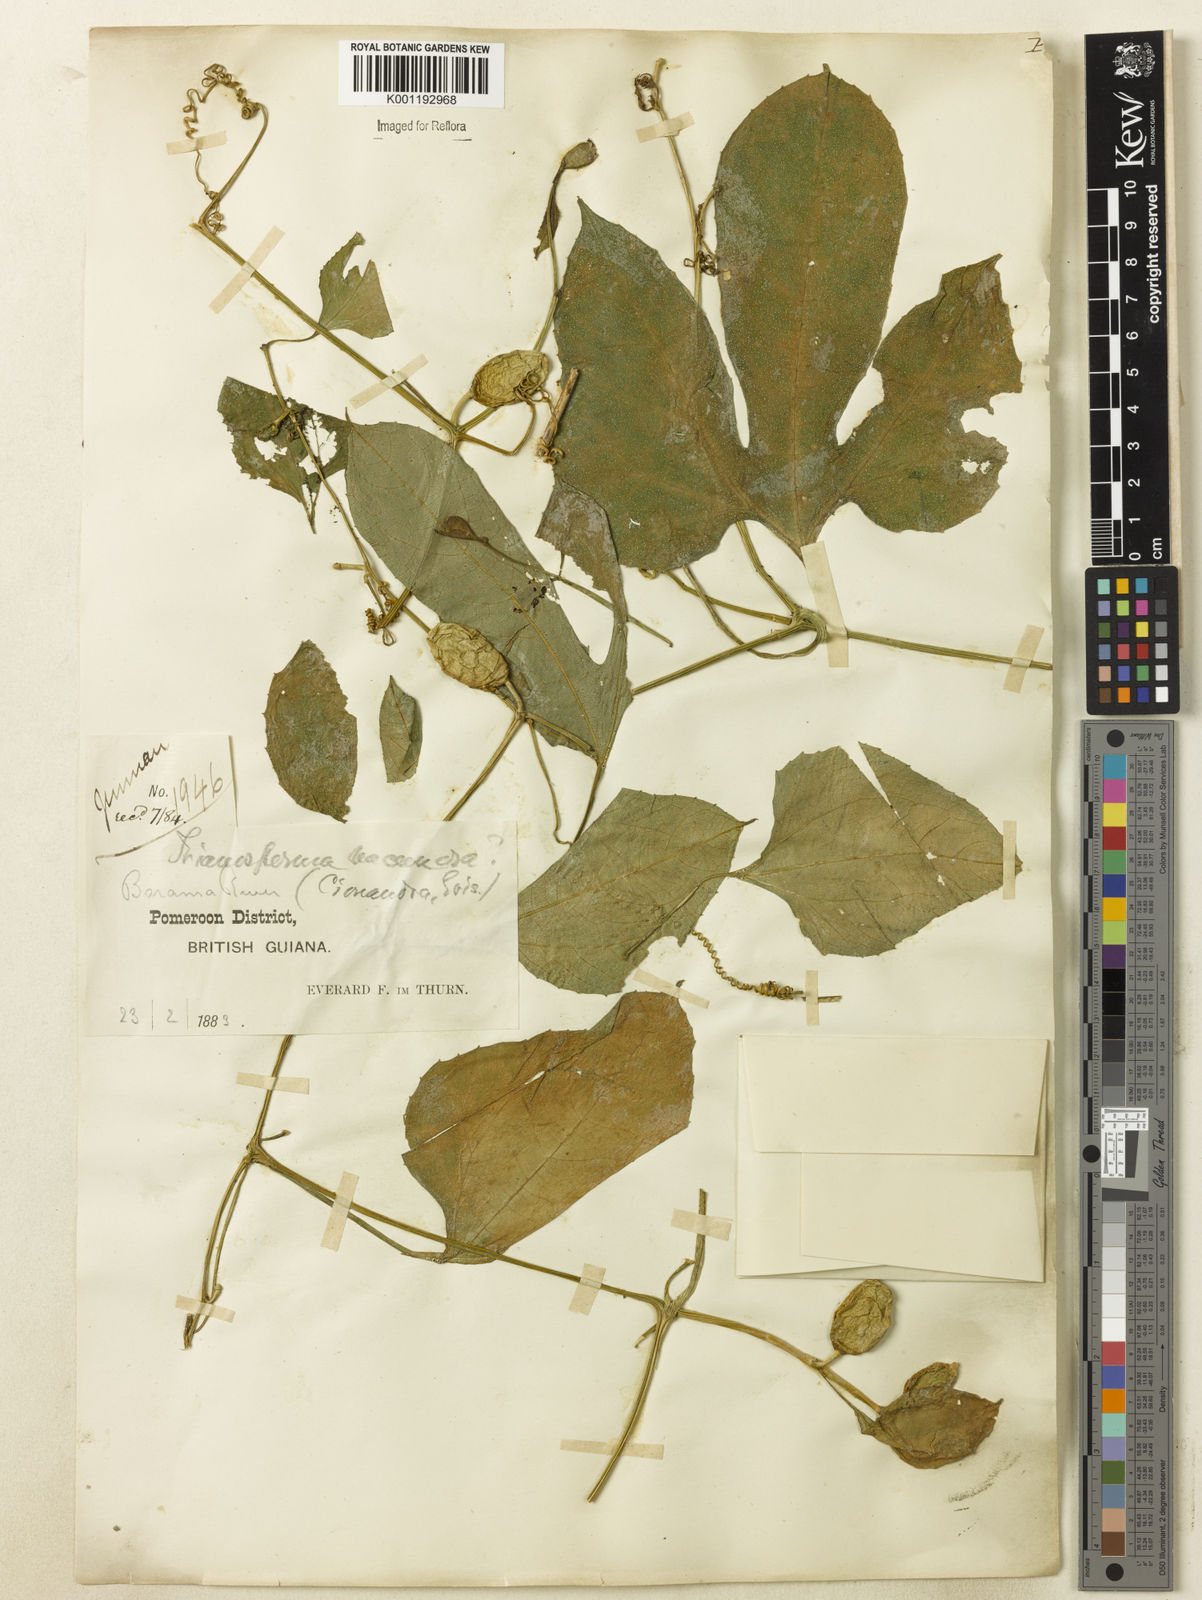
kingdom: Plantae
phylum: Tracheophyta
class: Magnoliopsida
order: Cucurbitales
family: Cucurbitaceae
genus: Cayaponia
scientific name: Cayaponia cruegeri
